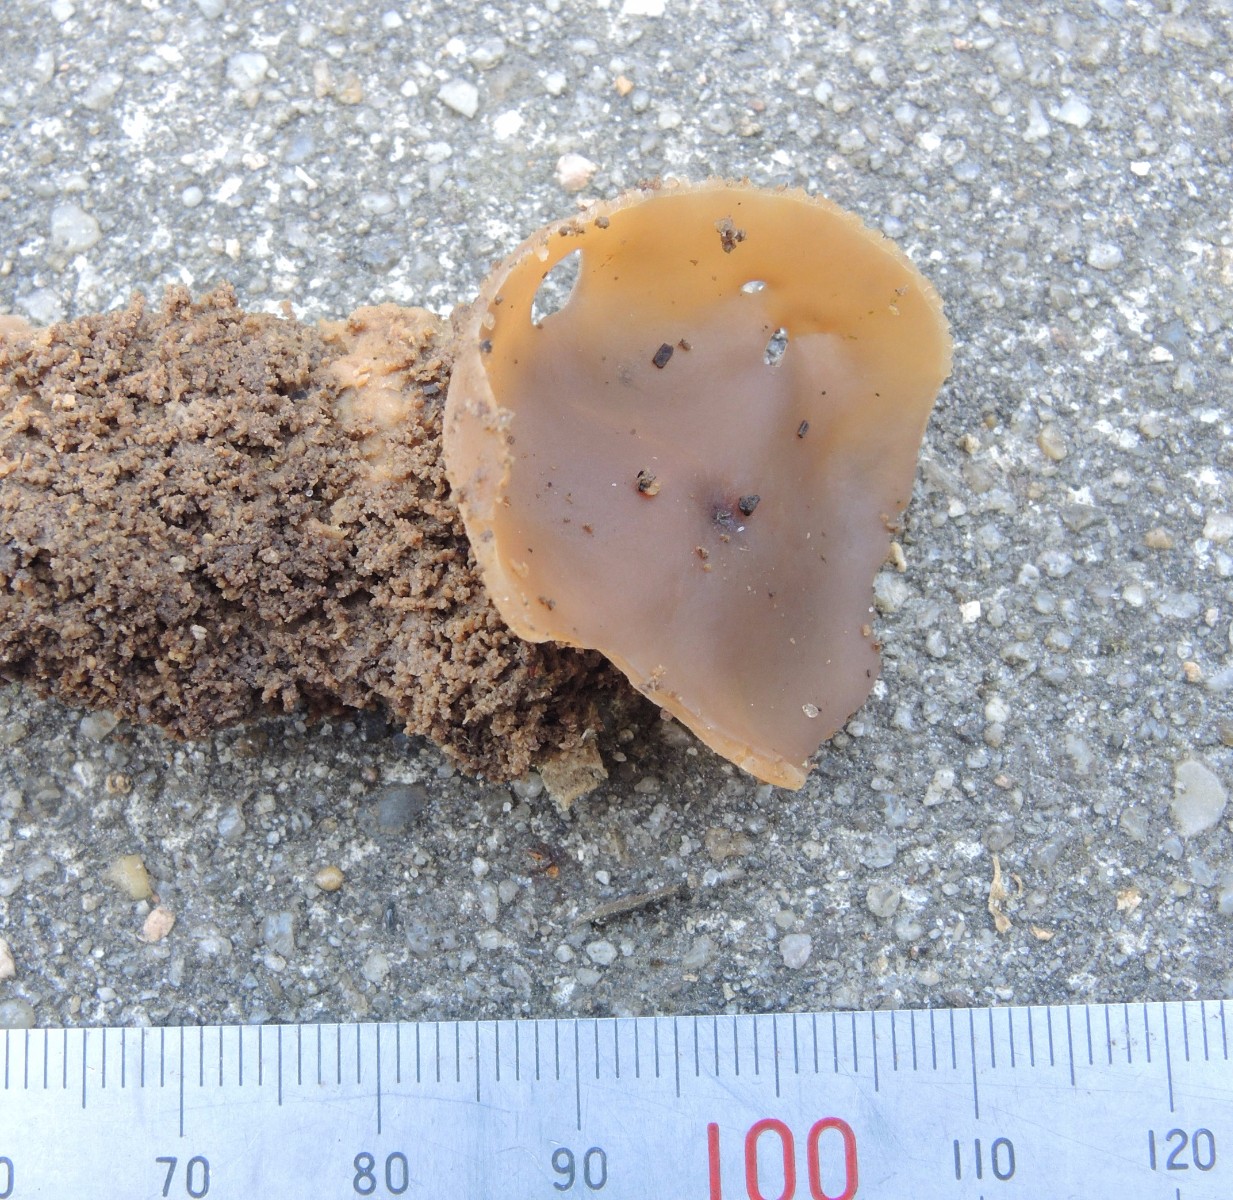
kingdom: Fungi
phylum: Ascomycota
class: Pezizomycetes
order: Pezizales
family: Pezizaceae
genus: Peziza
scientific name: Peziza varia
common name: Ved-bægersvamp
